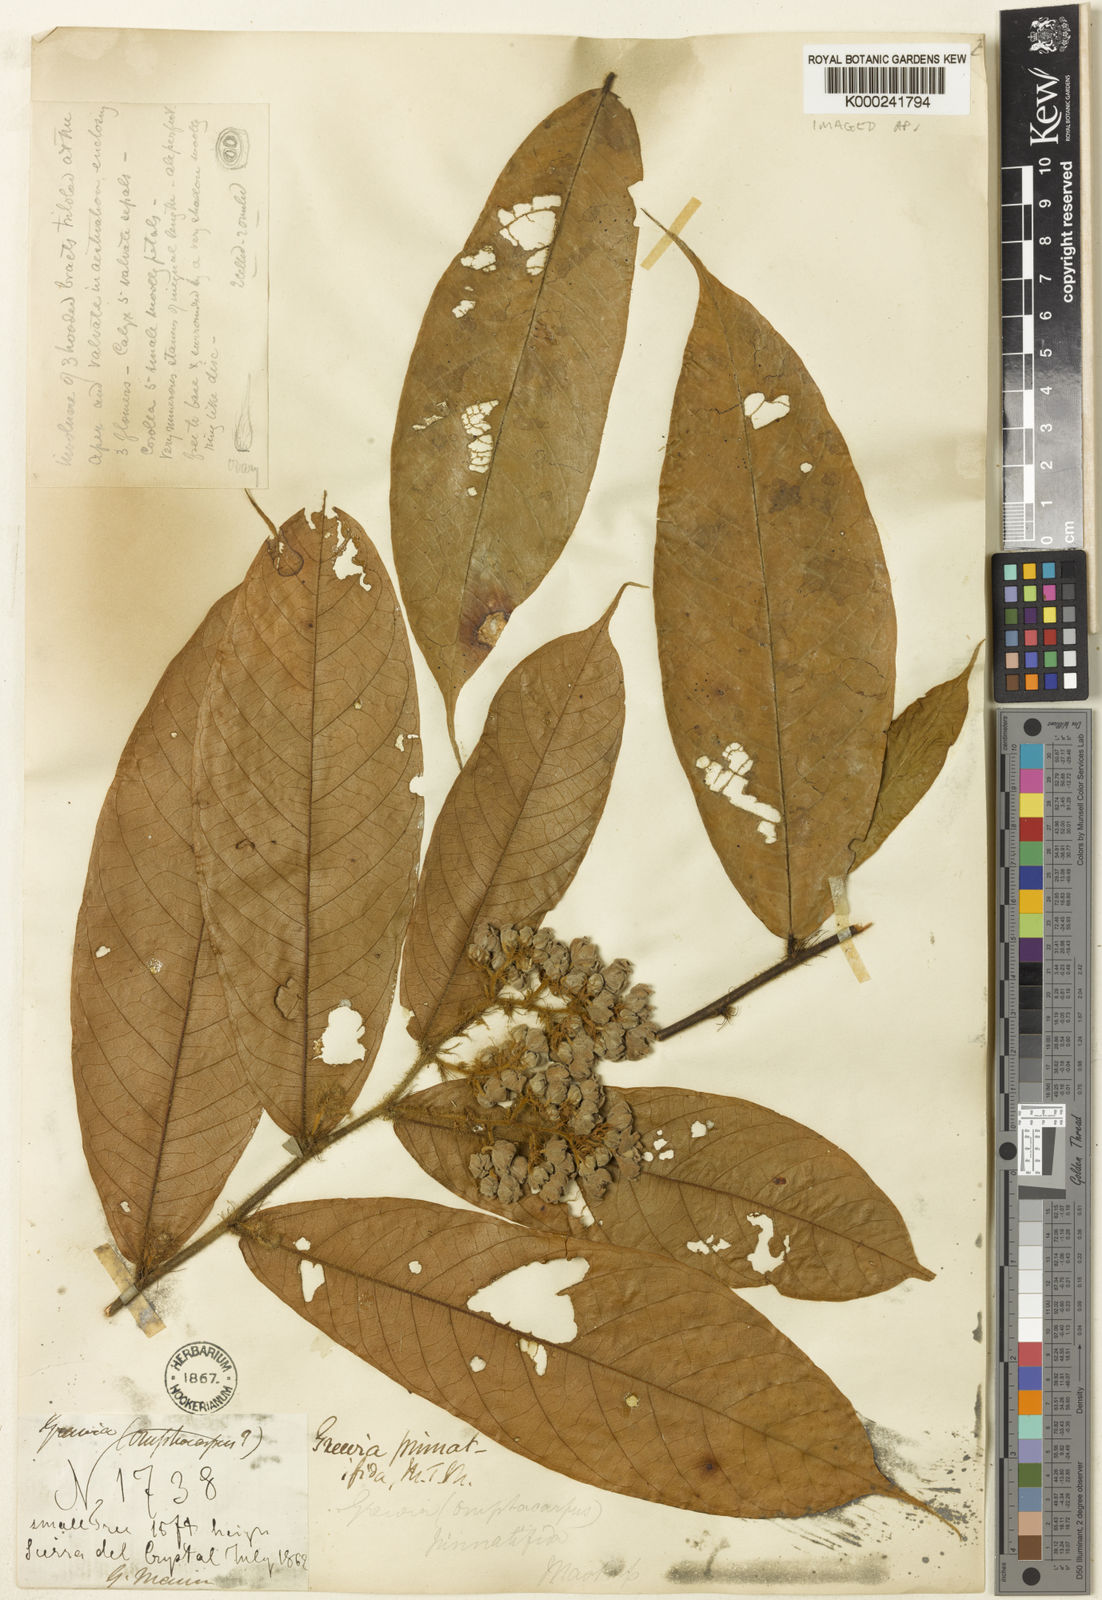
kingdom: Plantae
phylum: Tracheophyta
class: Magnoliopsida
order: Malvales
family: Malvaceae
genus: Microcos
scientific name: Microcos pinnatifida
